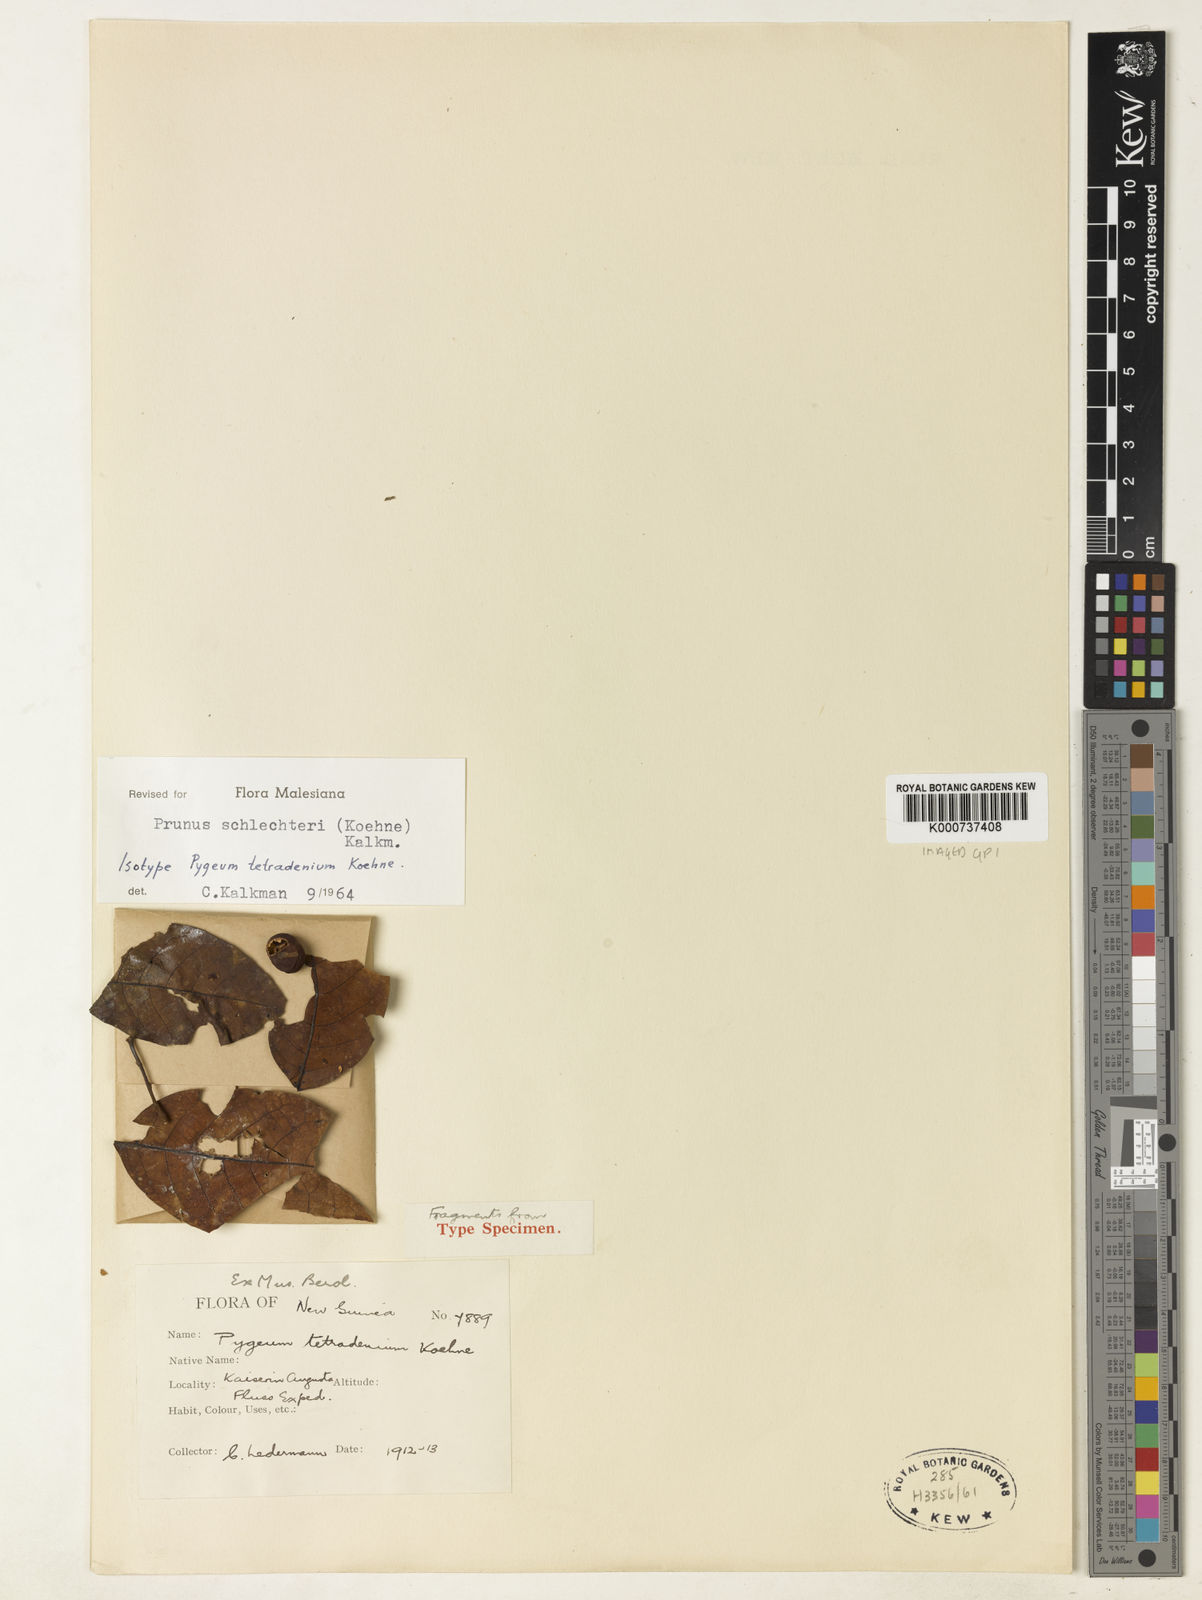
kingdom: Plantae
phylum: Tracheophyta
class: Magnoliopsida
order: Rosales
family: Rosaceae
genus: Prunus
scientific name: Prunus schlechteri
